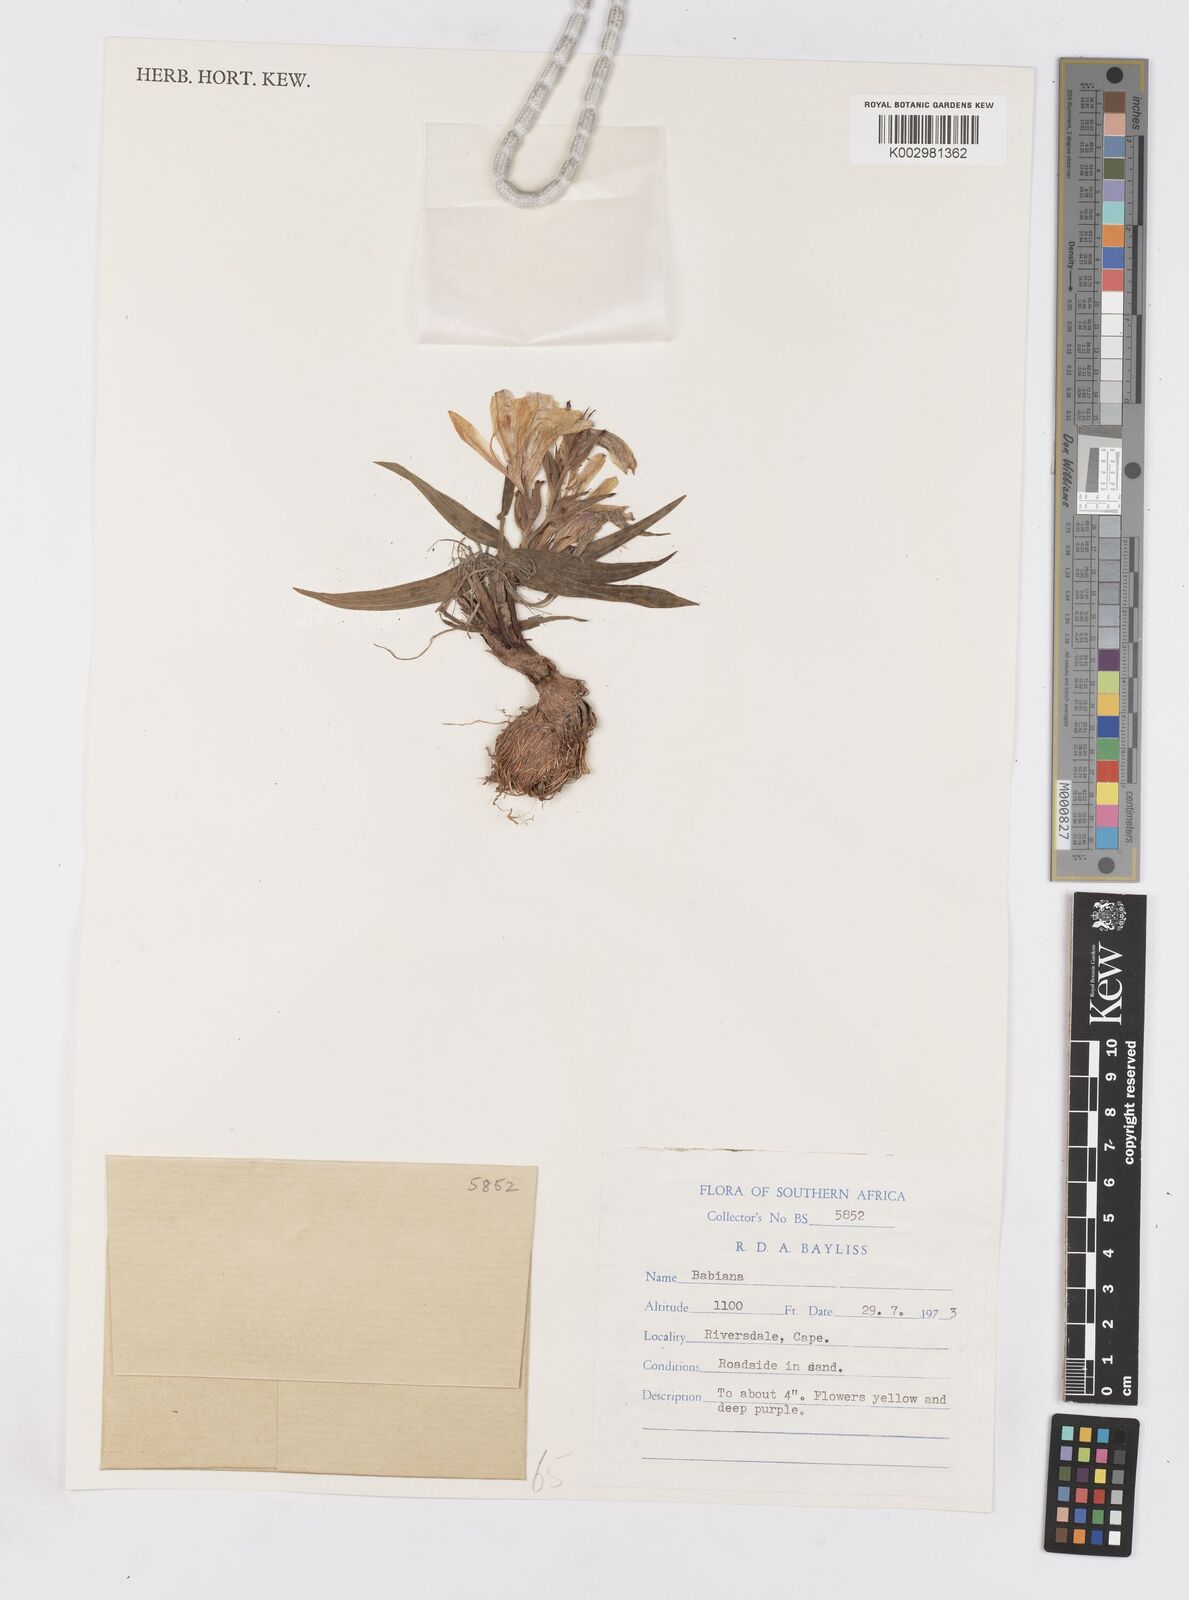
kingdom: Plantae
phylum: Tracheophyta
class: Liliopsida
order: Asparagales
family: Iridaceae
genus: Babiana
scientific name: Babiana
